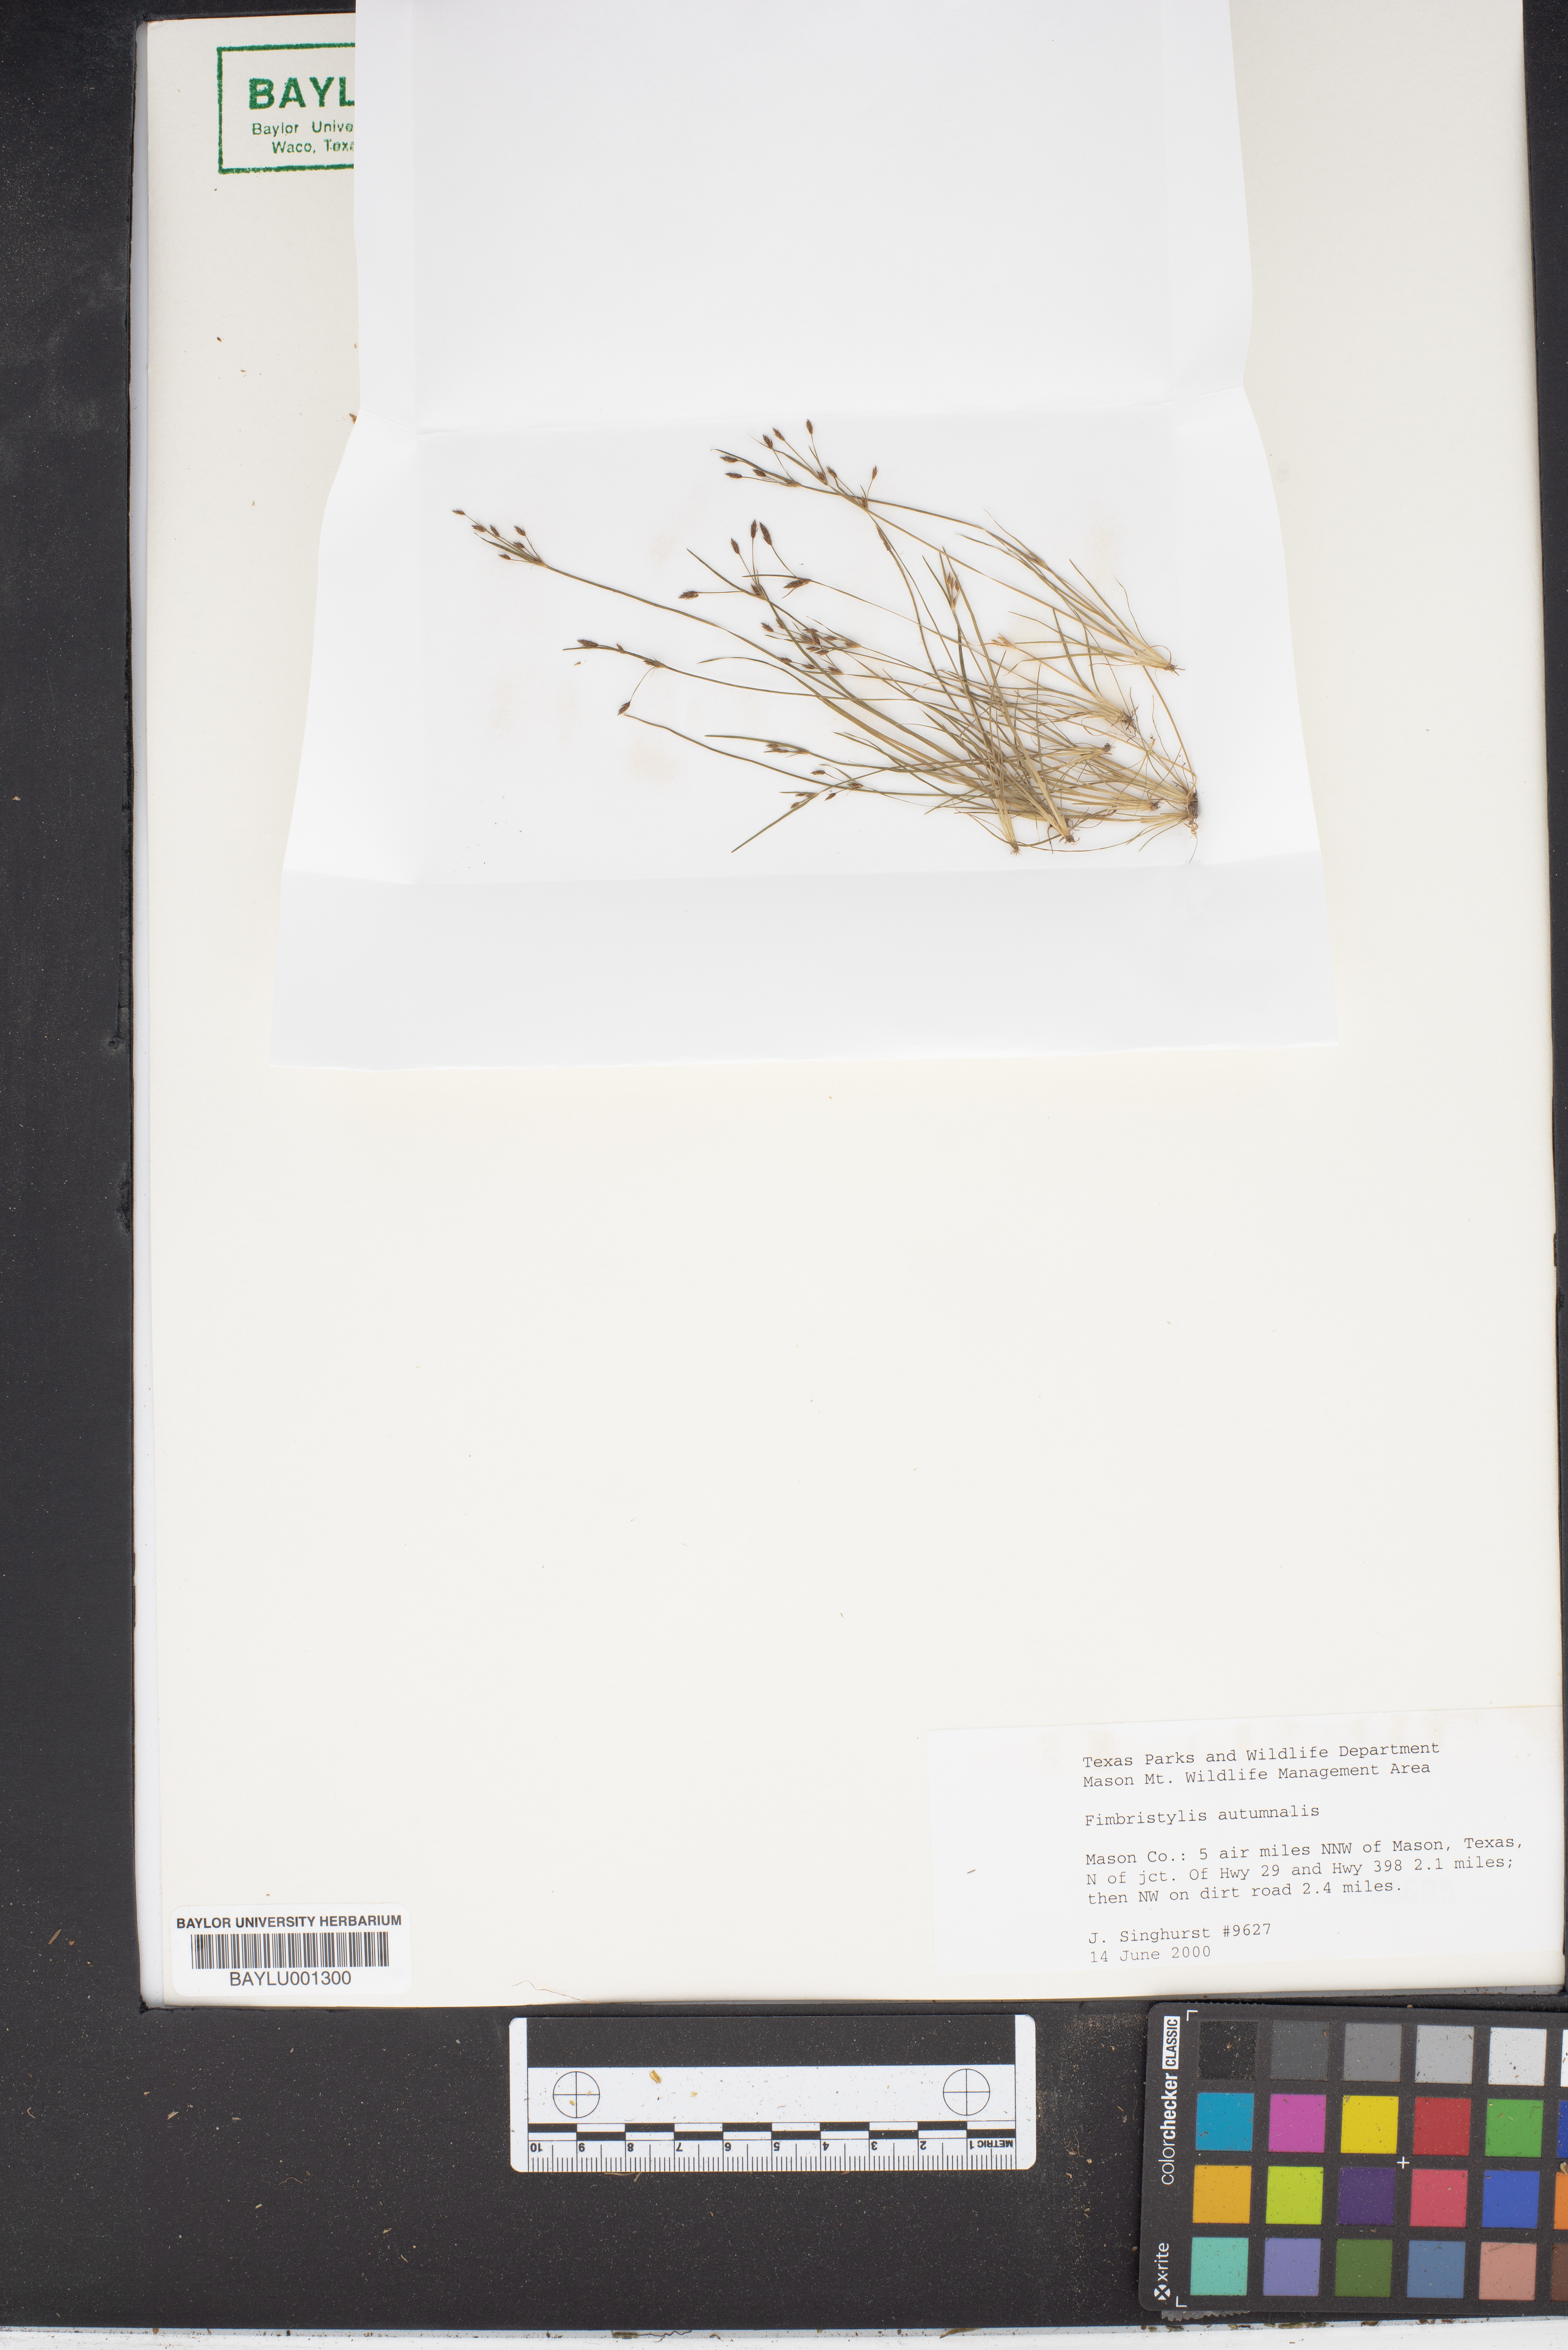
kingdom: Plantae
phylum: Tracheophyta
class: Liliopsida
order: Poales
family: Cyperaceae
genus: Fimbristylis
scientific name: Fimbristylis autumnalis
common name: Slender fimbristylis
